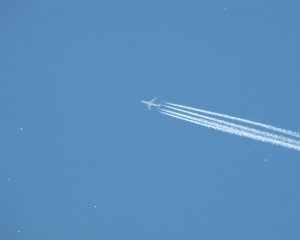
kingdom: Animalia
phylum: Arthropoda
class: Insecta
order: Lepidoptera
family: Pieridae
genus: Neophasia
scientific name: Neophasia menapia
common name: Pine White
